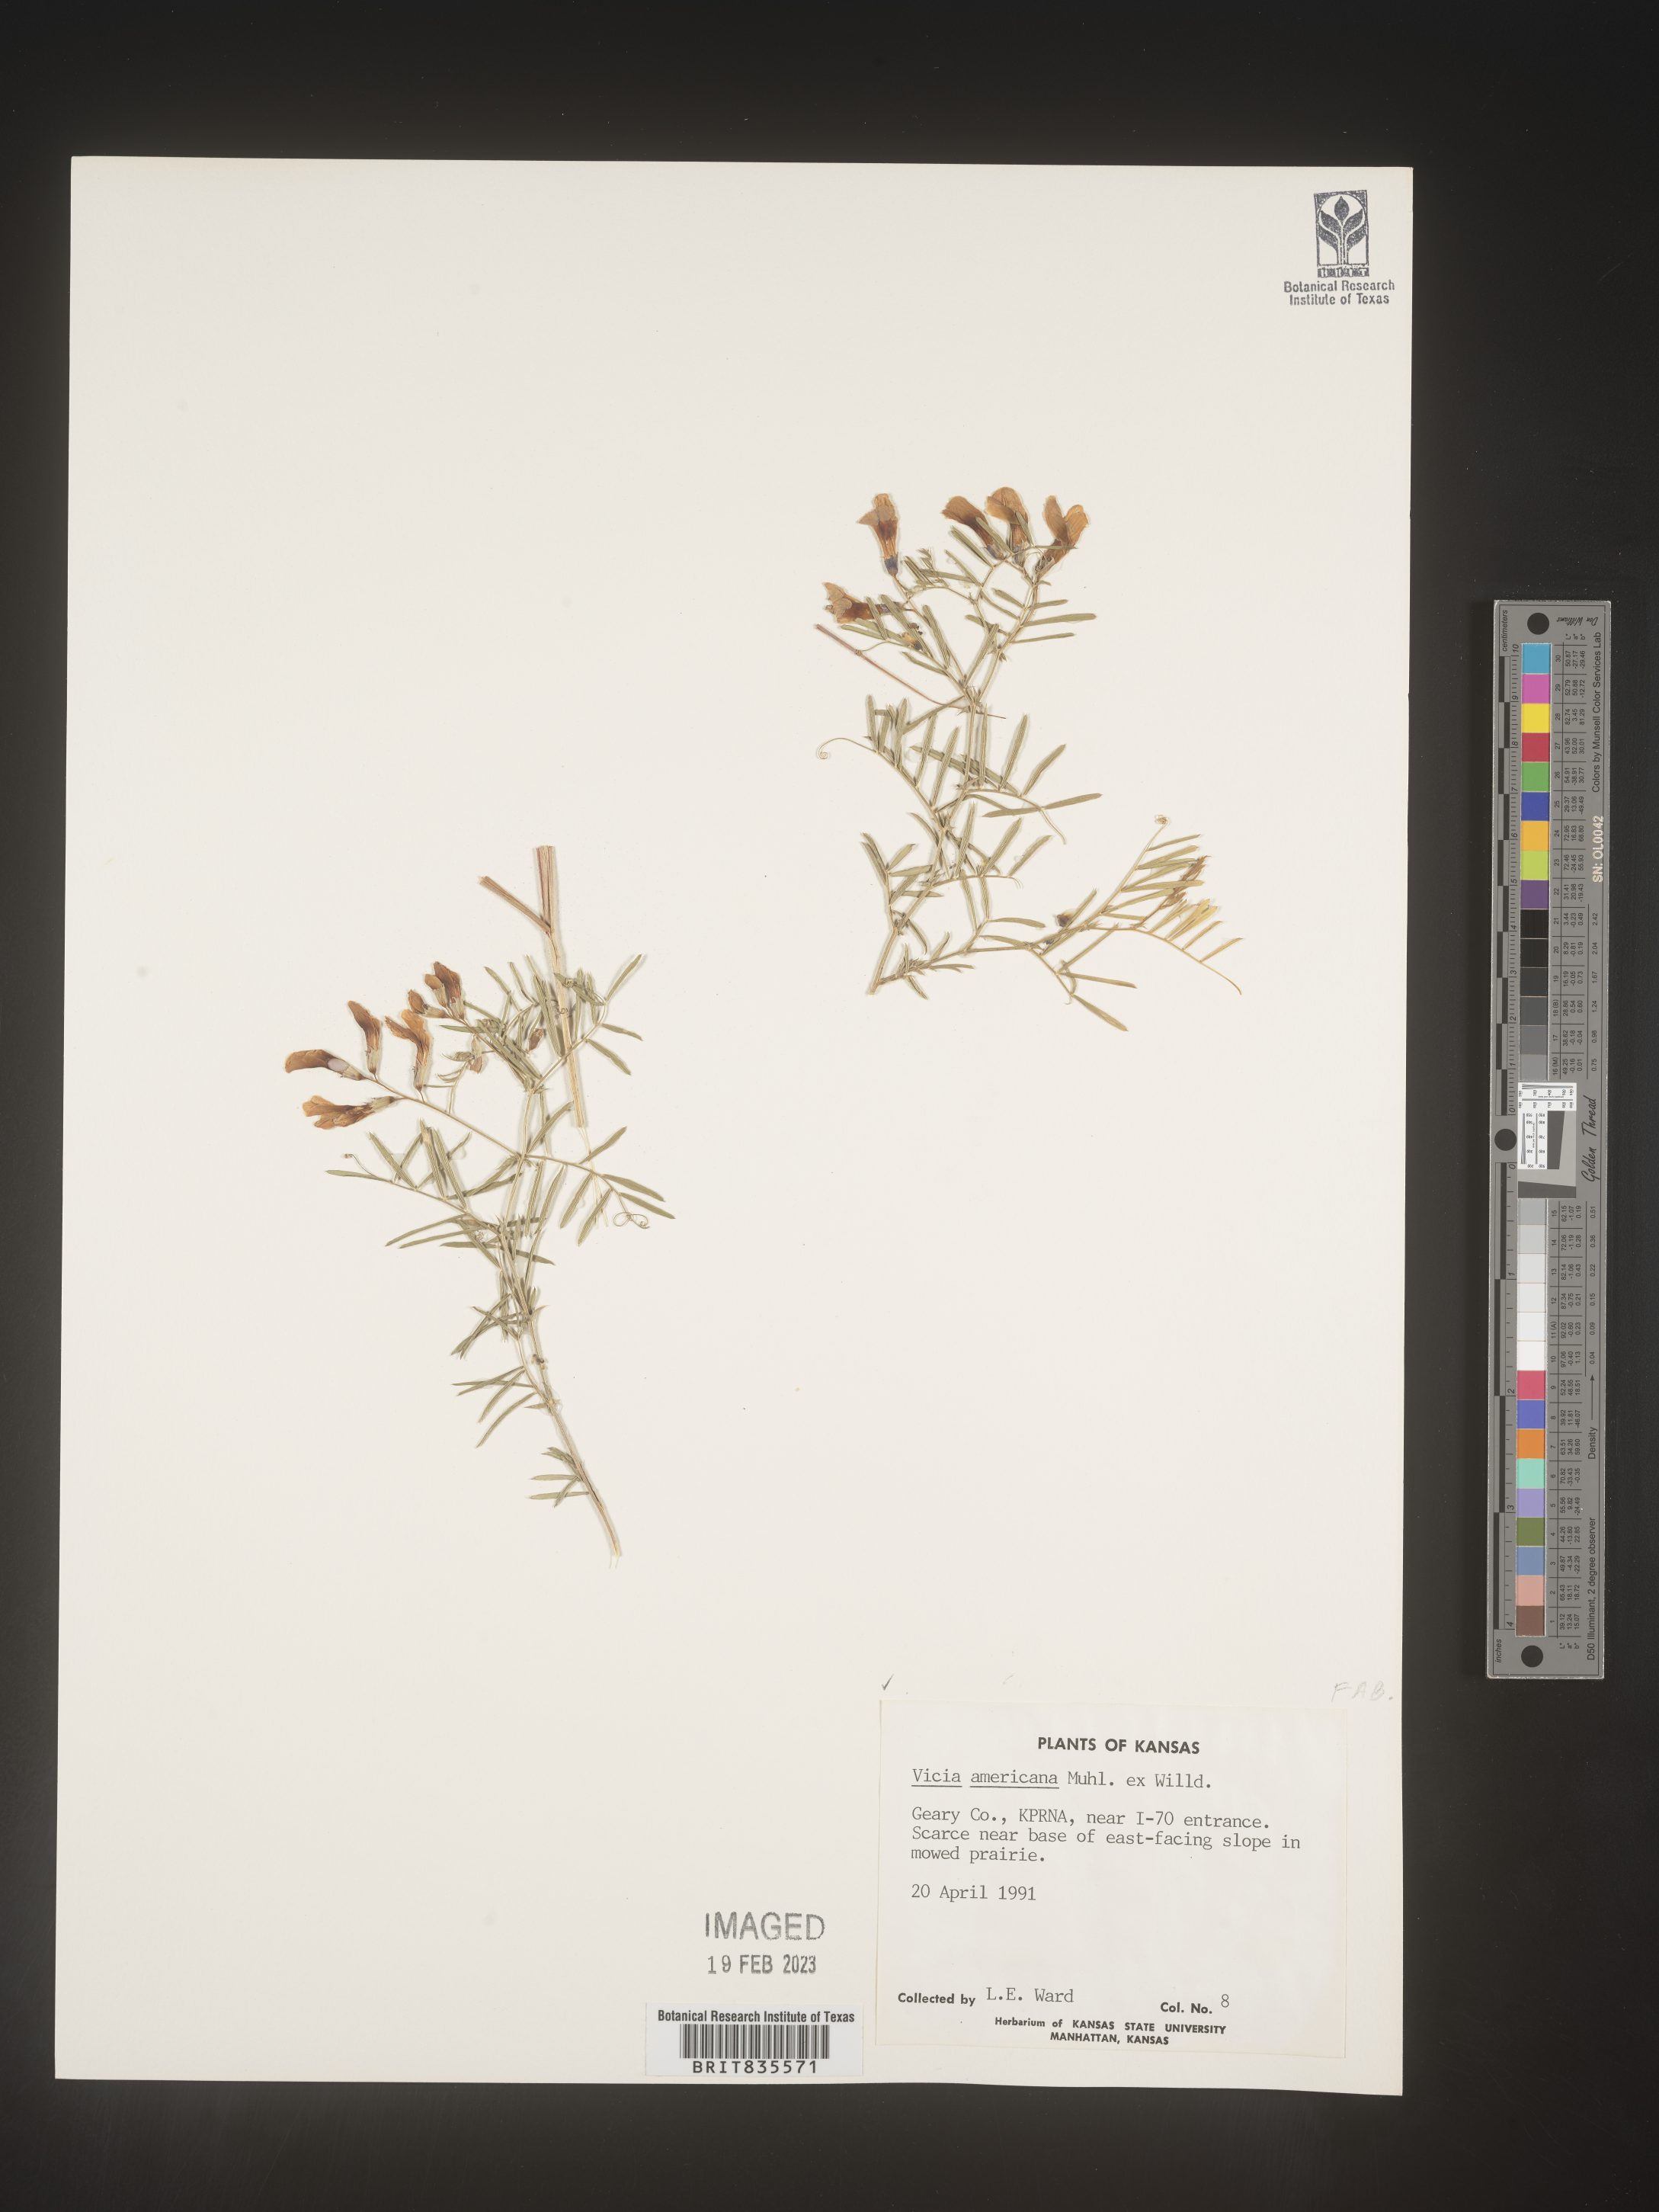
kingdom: Plantae
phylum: Tracheophyta
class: Magnoliopsida
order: Fabales
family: Fabaceae
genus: Vicia
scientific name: Vicia americana
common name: American vetch
